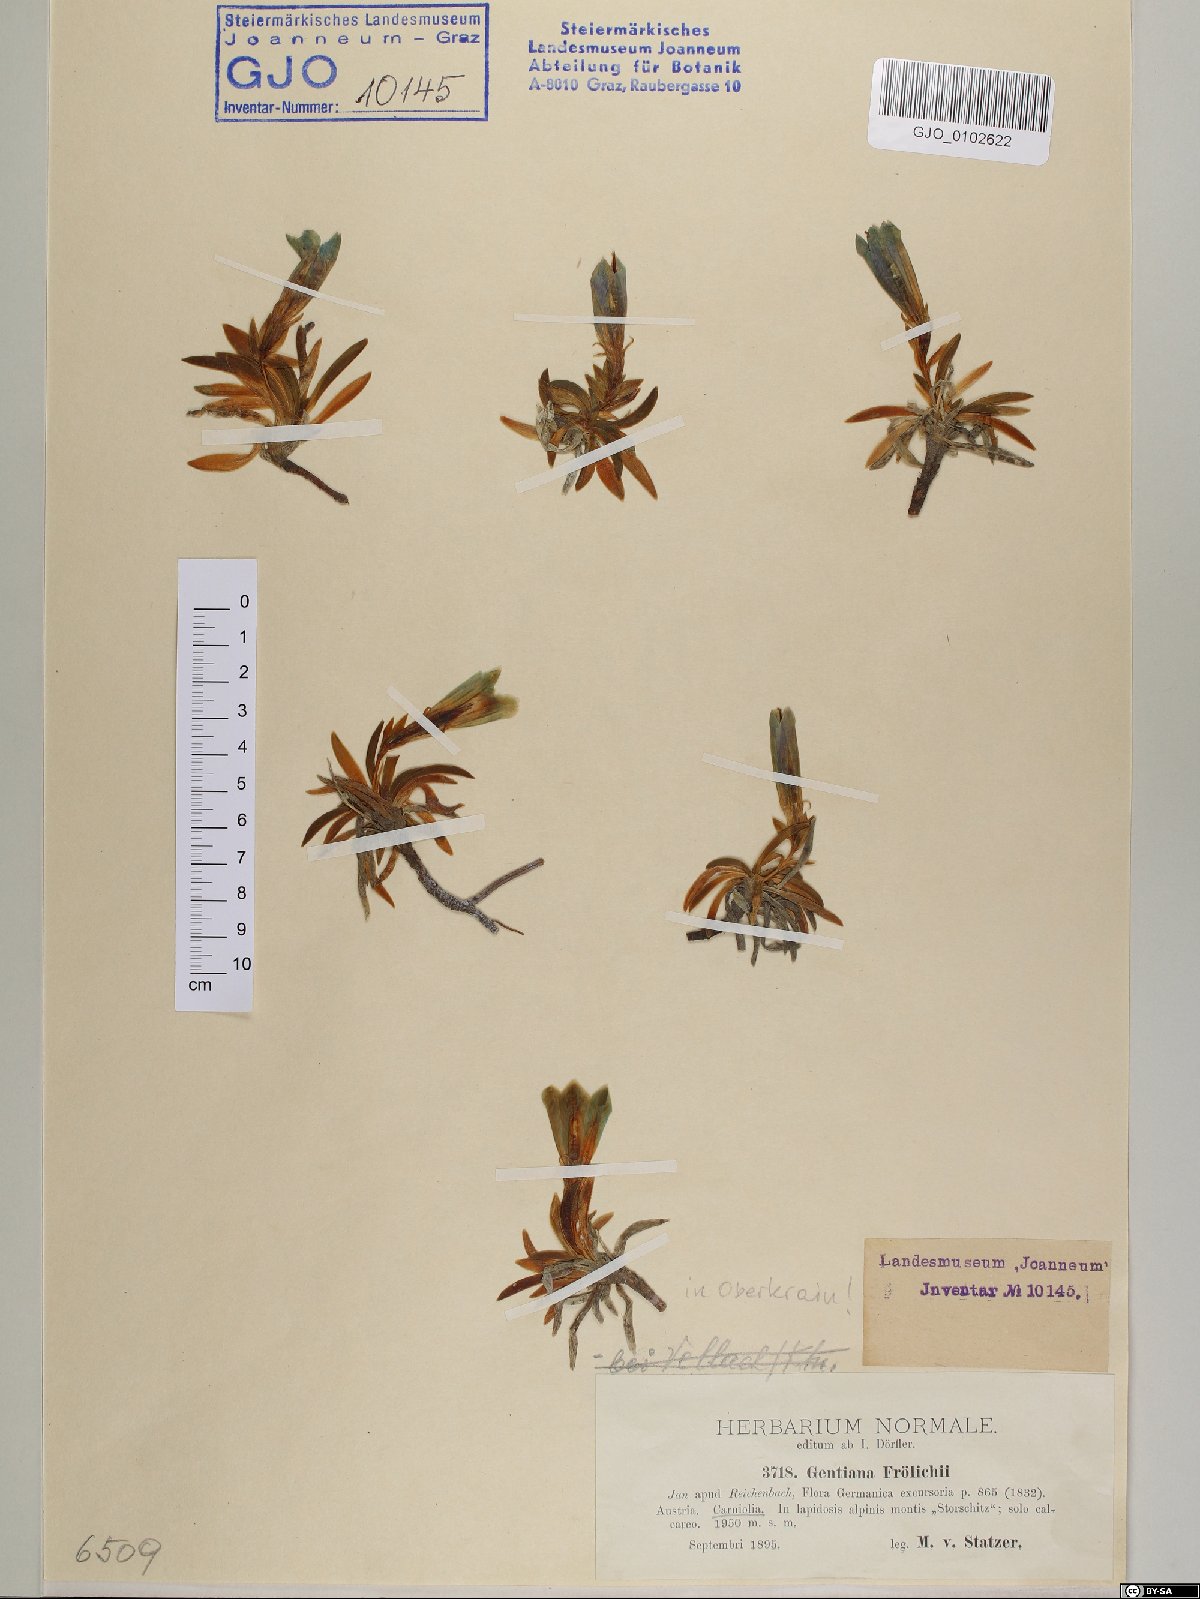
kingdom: Plantae
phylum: Tracheophyta
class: Magnoliopsida
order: Gentianales
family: Gentianaceae
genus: Gentiana
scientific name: Gentiana froelichii
